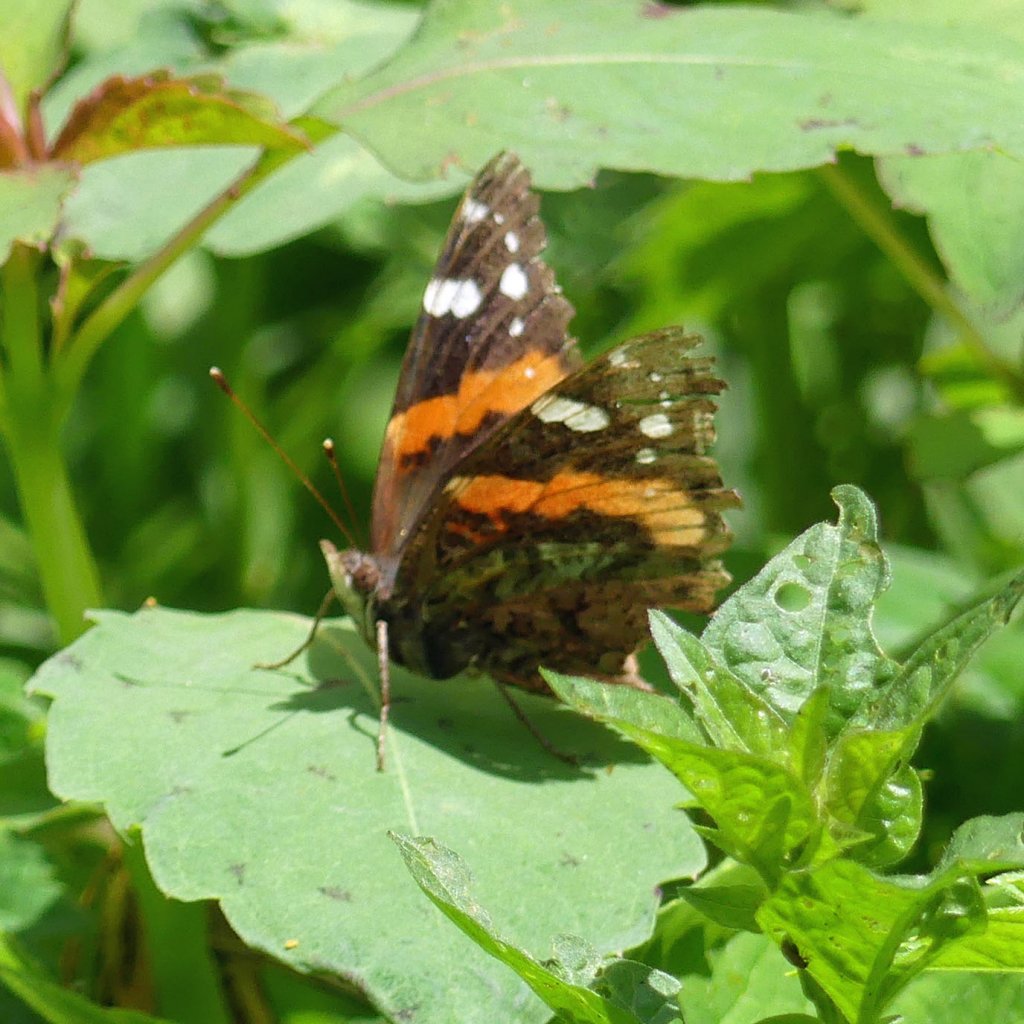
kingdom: Animalia
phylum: Arthropoda
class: Insecta
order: Lepidoptera
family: Nymphalidae
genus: Vanessa
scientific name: Vanessa atalanta
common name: Red Admiral
